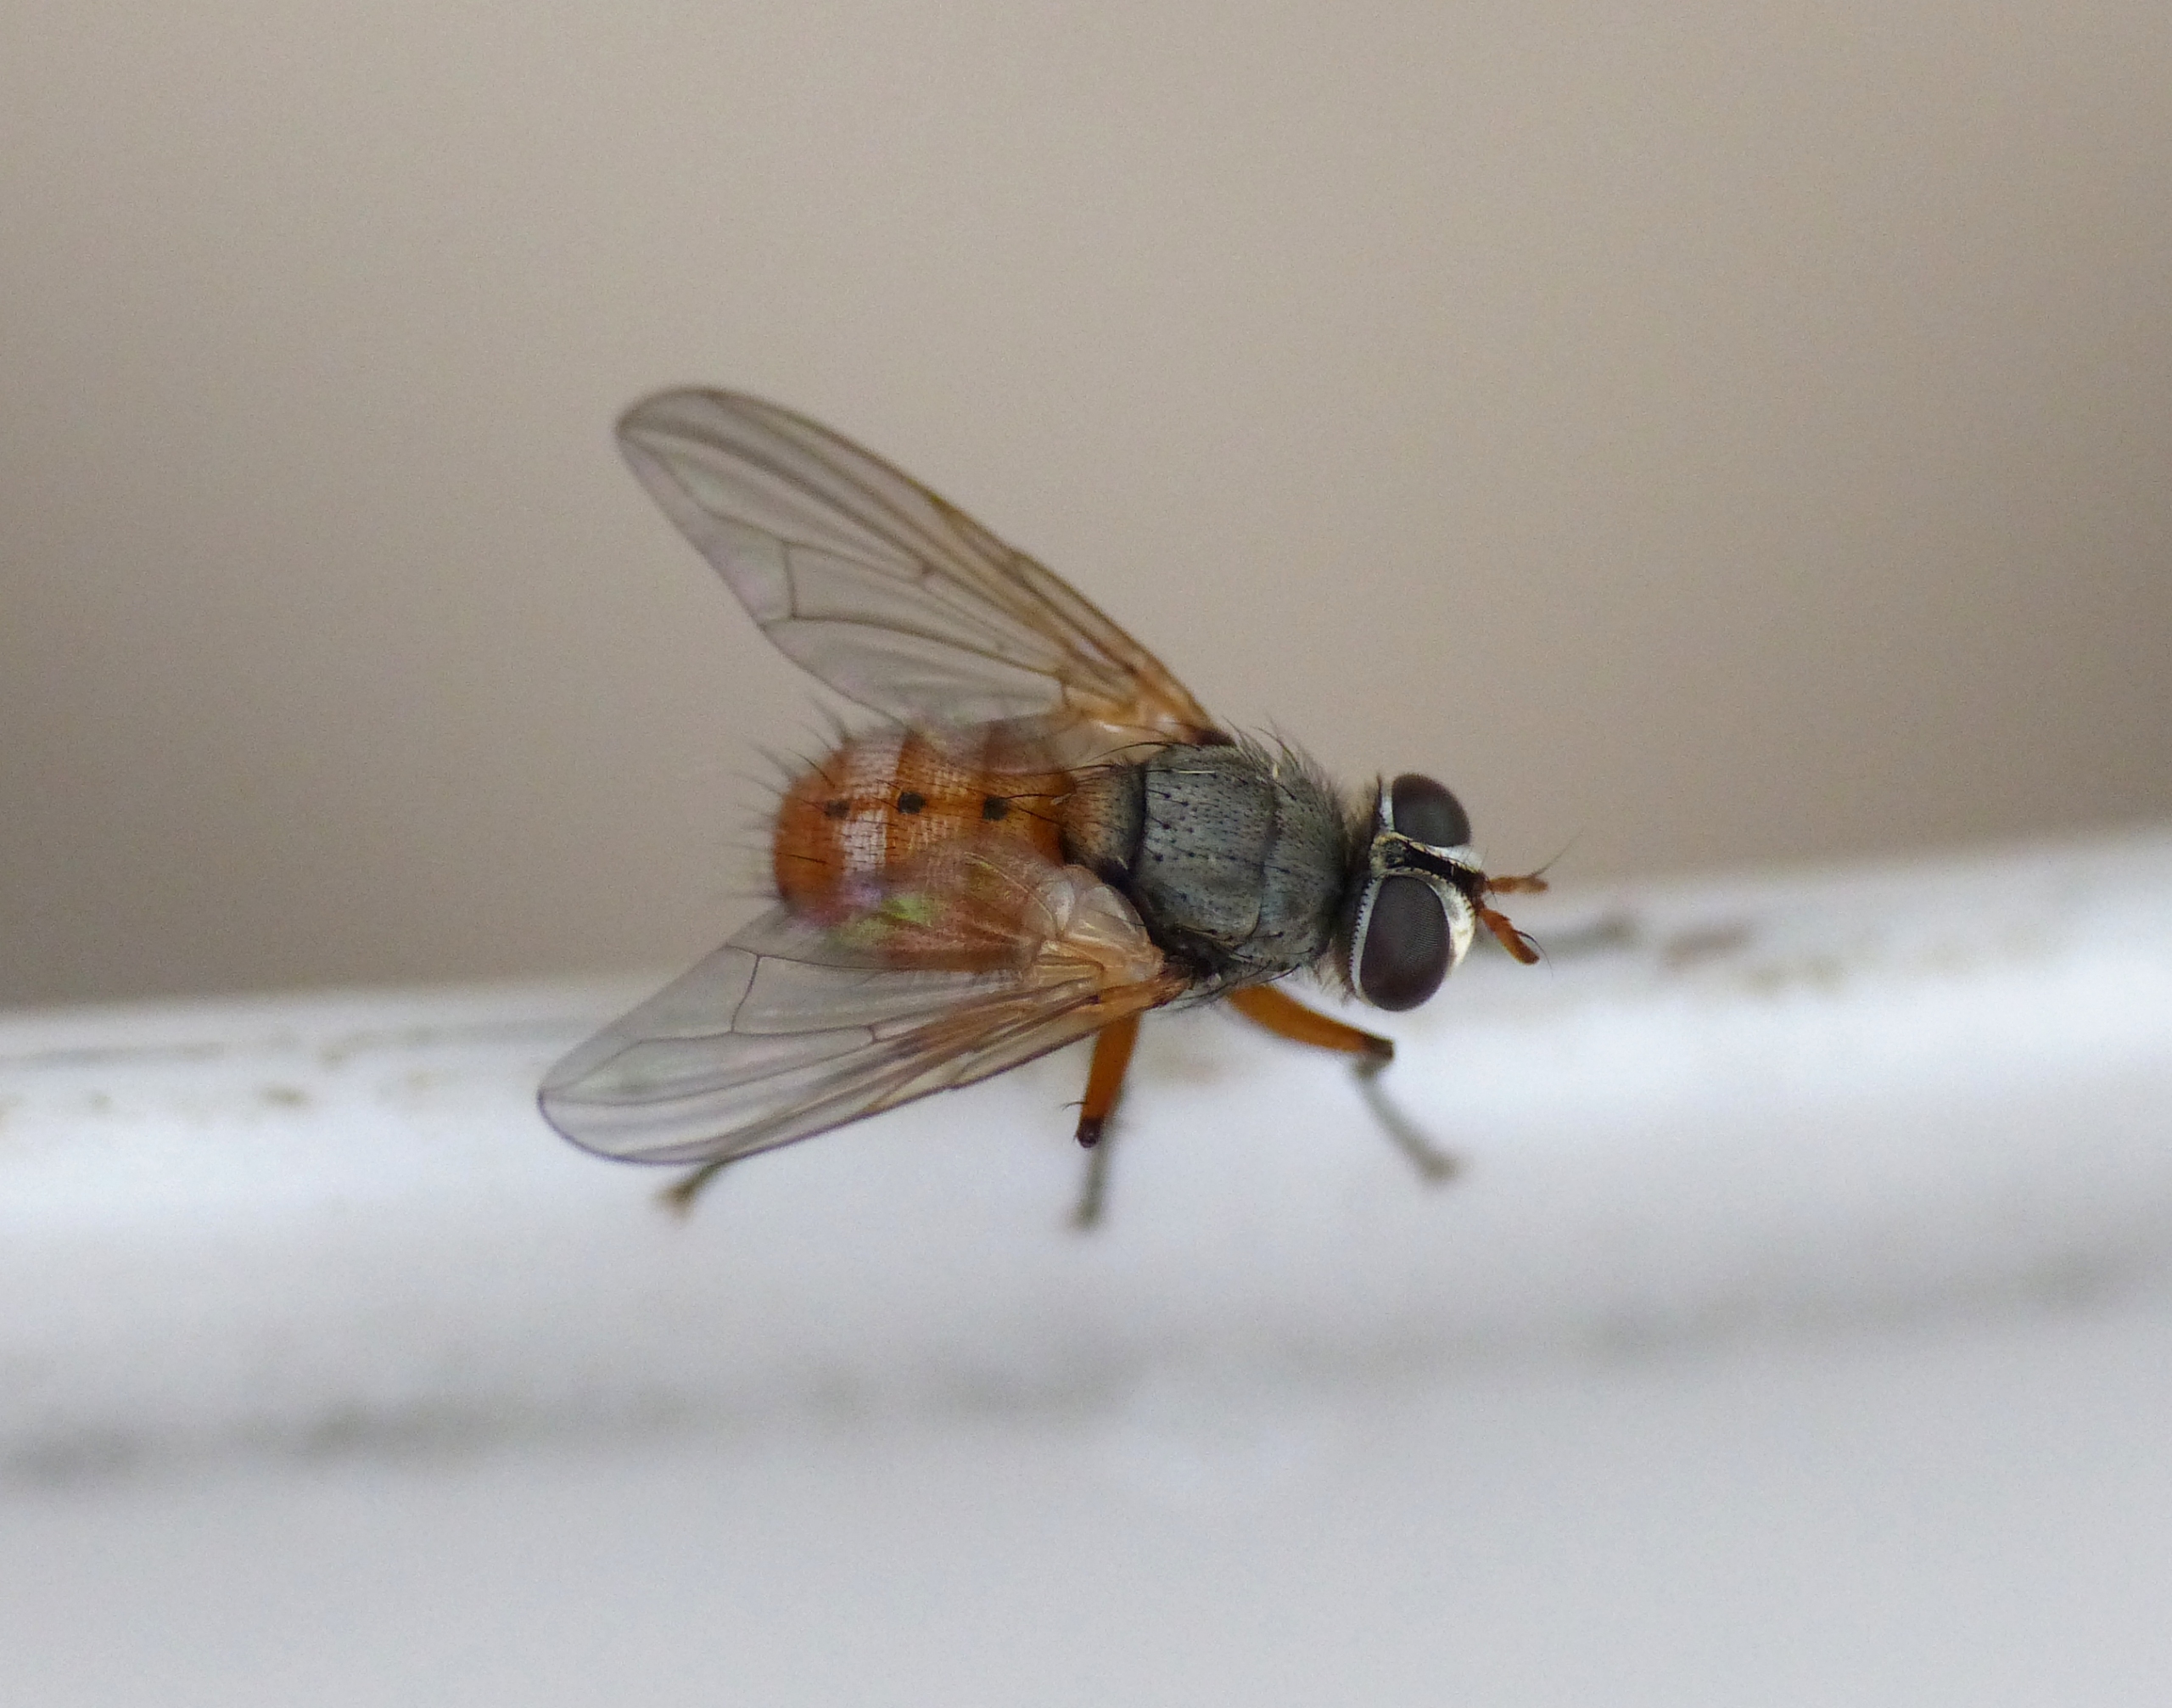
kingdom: Animalia
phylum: Arthropoda
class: Insecta
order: Diptera
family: Tachinidae
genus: Subclytia
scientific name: Subclytia rotundiventris
